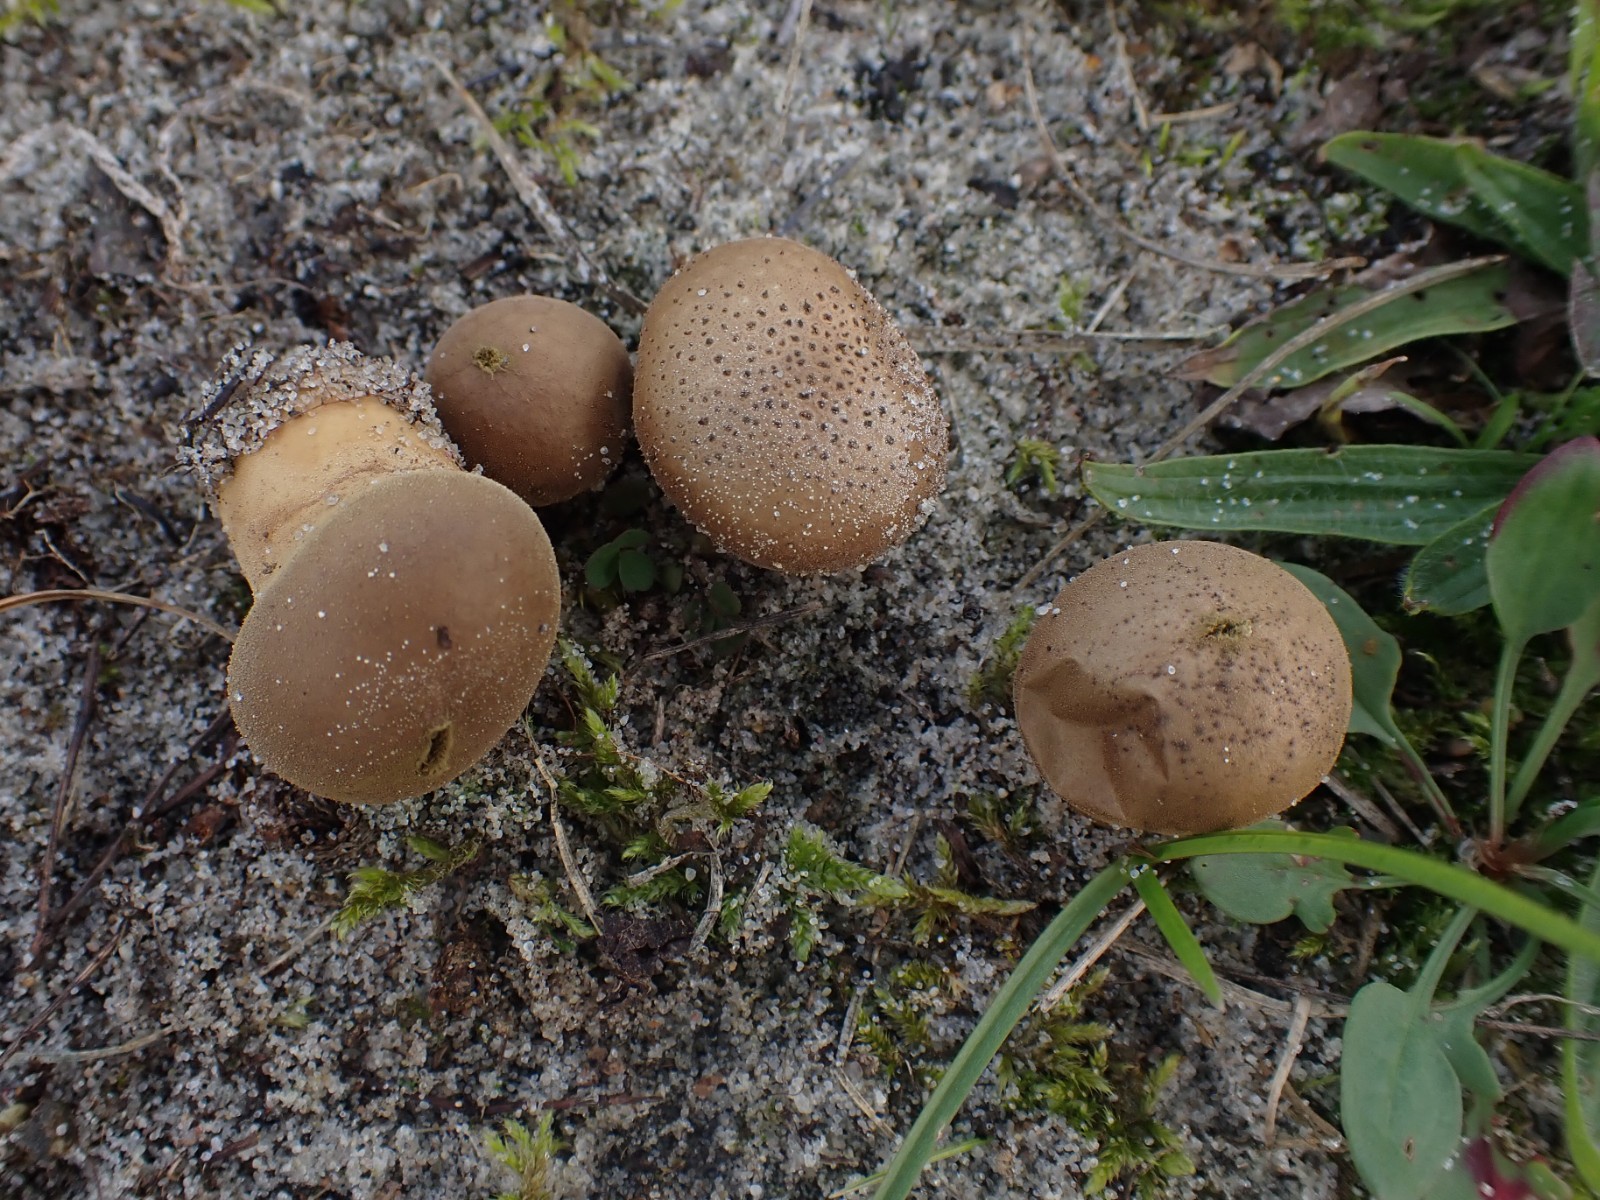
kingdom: Fungi
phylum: Basidiomycota
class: Agaricomycetes
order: Agaricales
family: Lycoperdaceae
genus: Lycoperdon
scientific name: Lycoperdon lividum
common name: mark-støvbold
